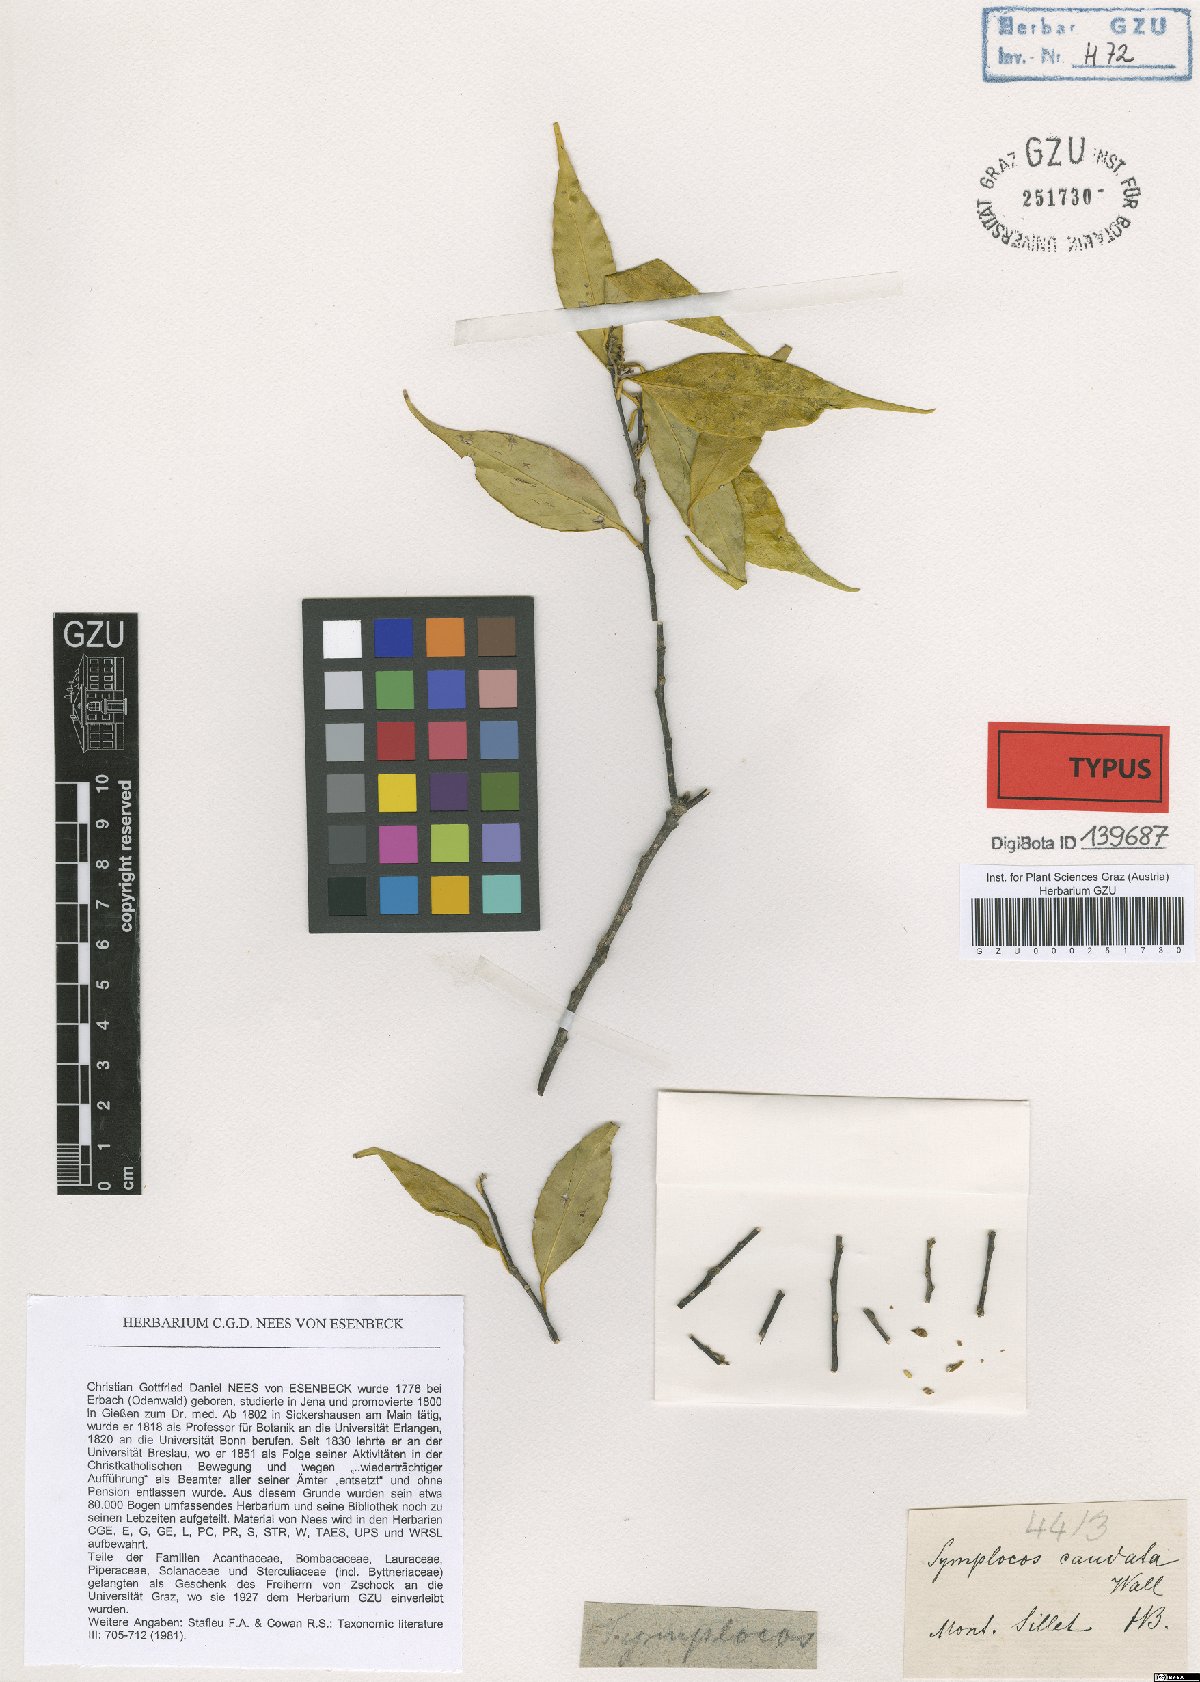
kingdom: Plantae
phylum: Tracheophyta
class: Magnoliopsida
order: Ericales
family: Symplocaceae
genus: Symplocos
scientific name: Symplocos caudata
